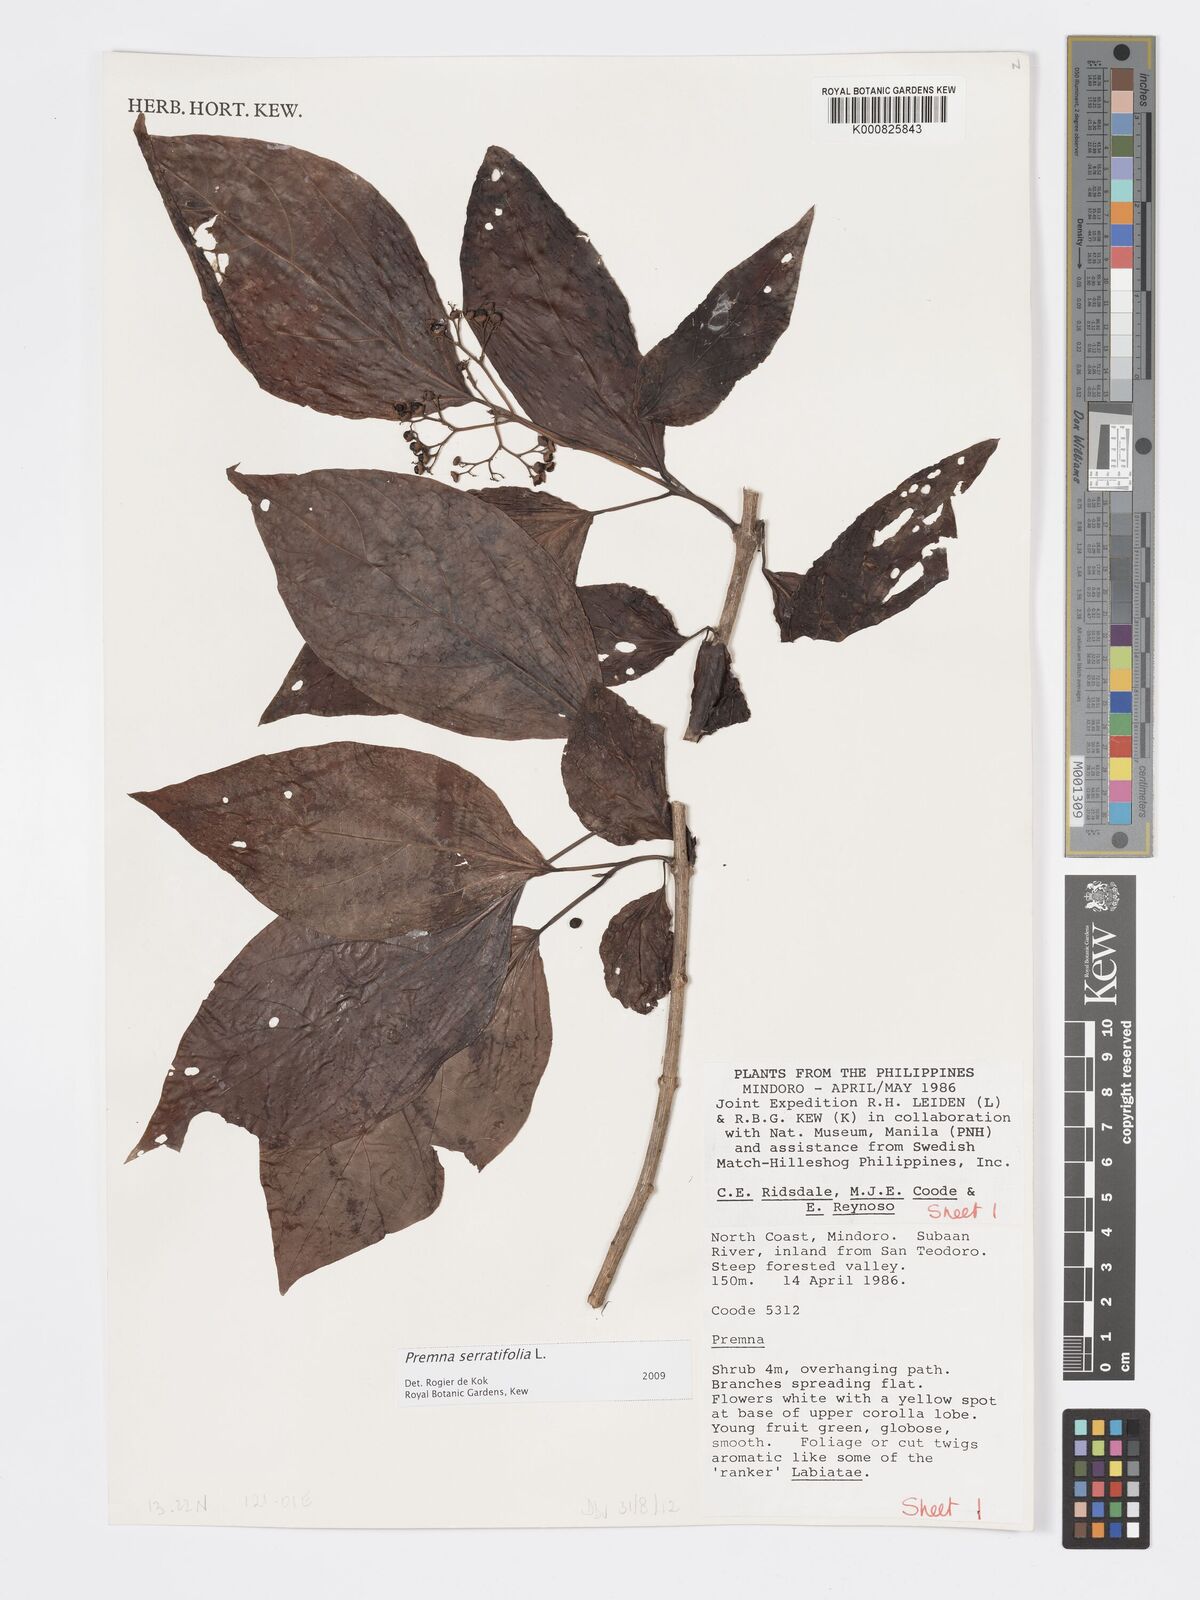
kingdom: Plantae
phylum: Tracheophyta
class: Magnoliopsida
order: Lamiales
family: Lamiaceae
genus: Premna
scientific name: Premna serratifolia
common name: Bastard guelder
